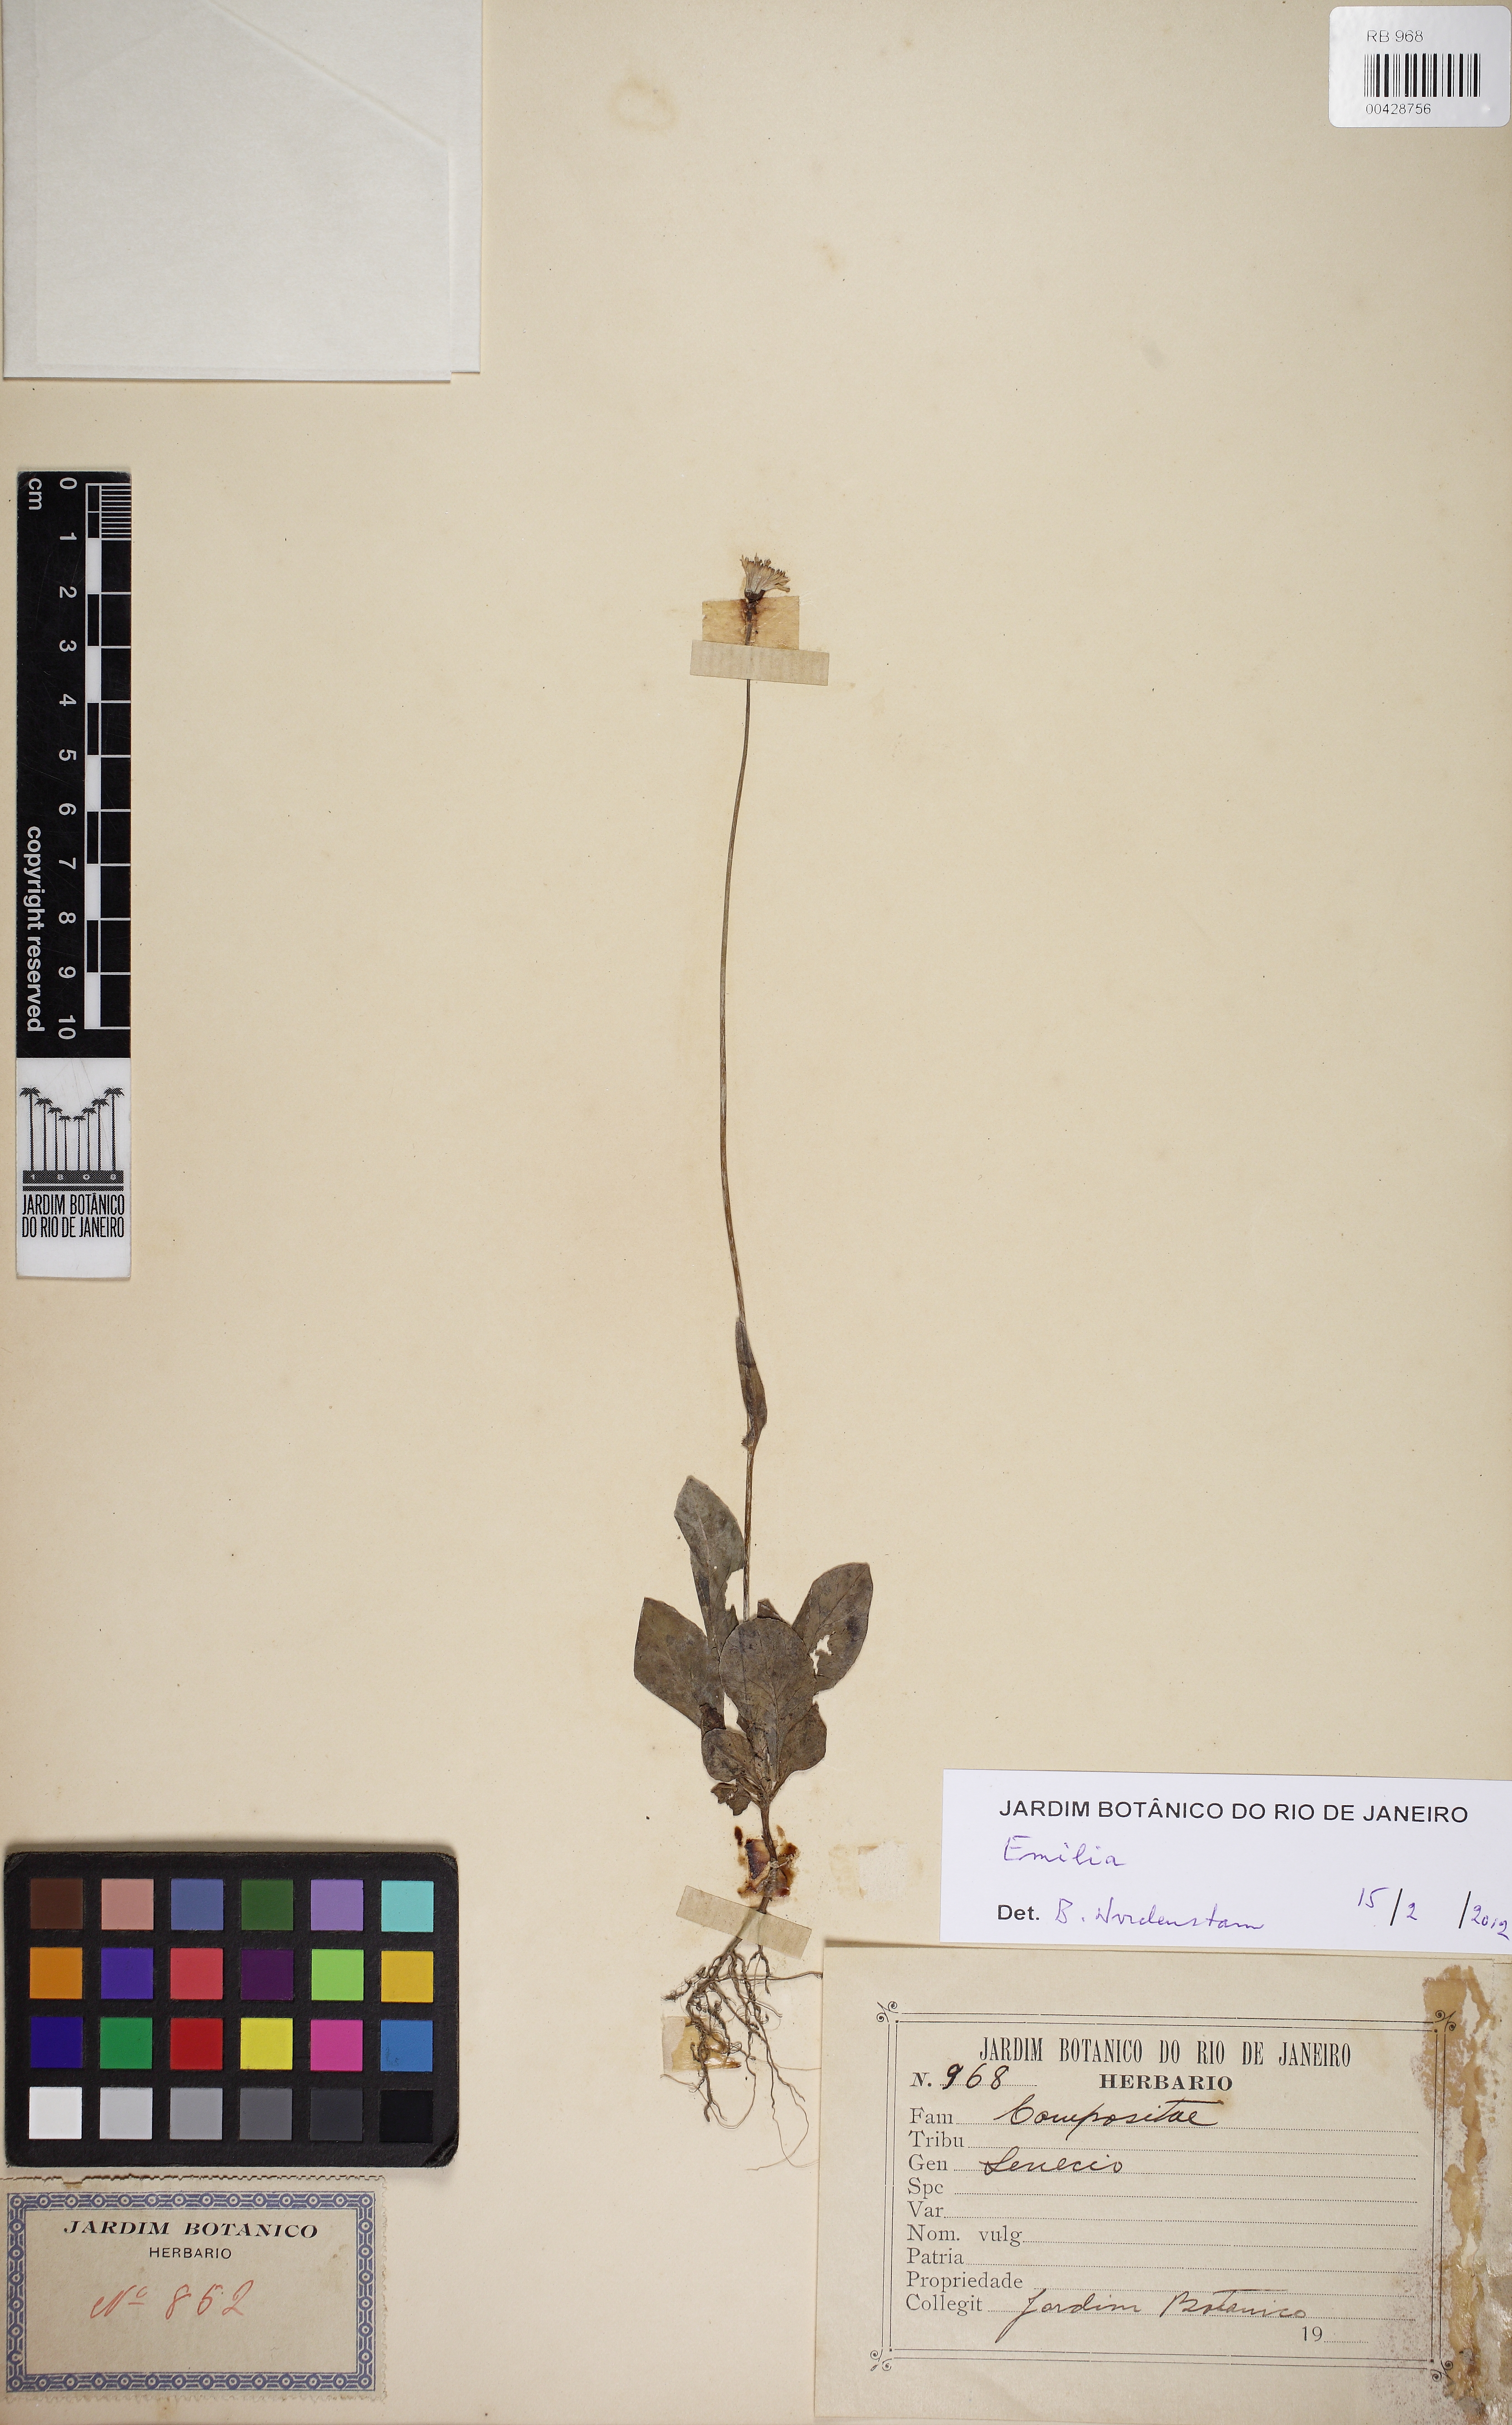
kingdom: Plantae
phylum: Tracheophyta
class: Magnoliopsida
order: Asterales
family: Asteraceae
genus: Emilia
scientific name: Emilia
